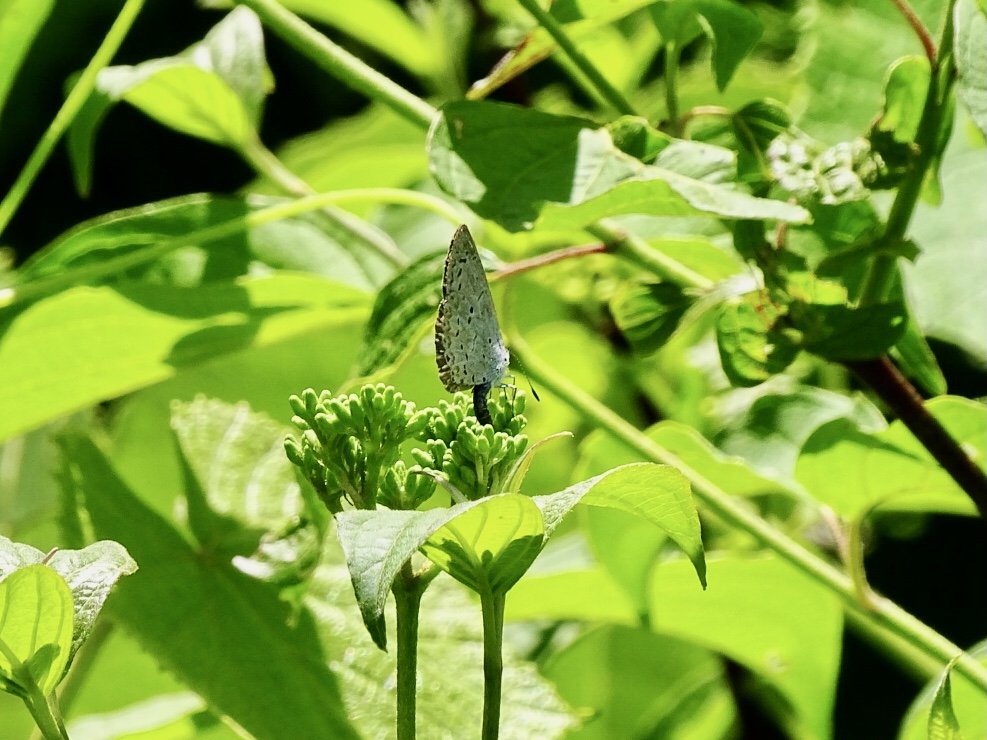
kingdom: Animalia
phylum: Arthropoda
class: Insecta
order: Lepidoptera
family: Lycaenidae
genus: Cyaniris
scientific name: Cyaniris neglecta
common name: Summer Azure
